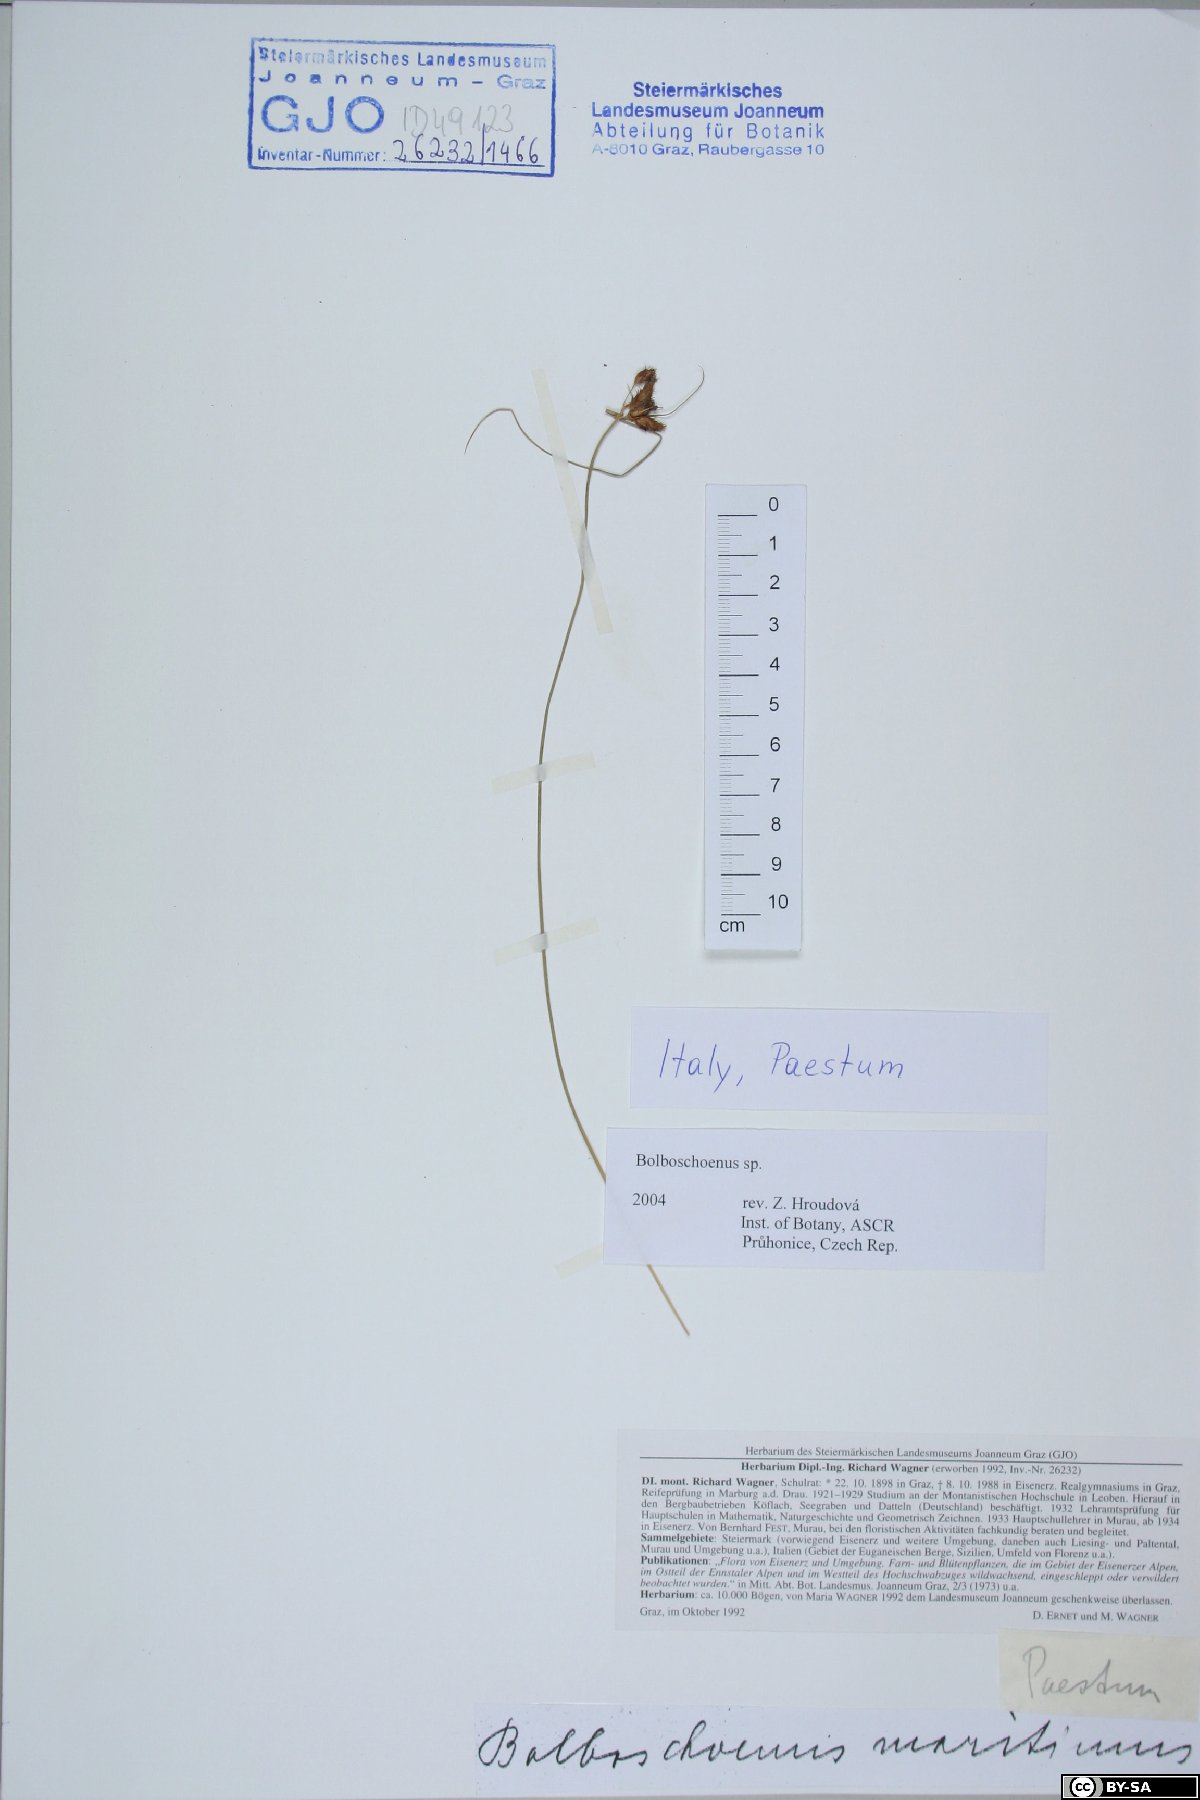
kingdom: Plantae
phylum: Tracheophyta
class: Liliopsida
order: Poales
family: Cyperaceae
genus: Bolboschoenus
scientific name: Bolboschoenus
